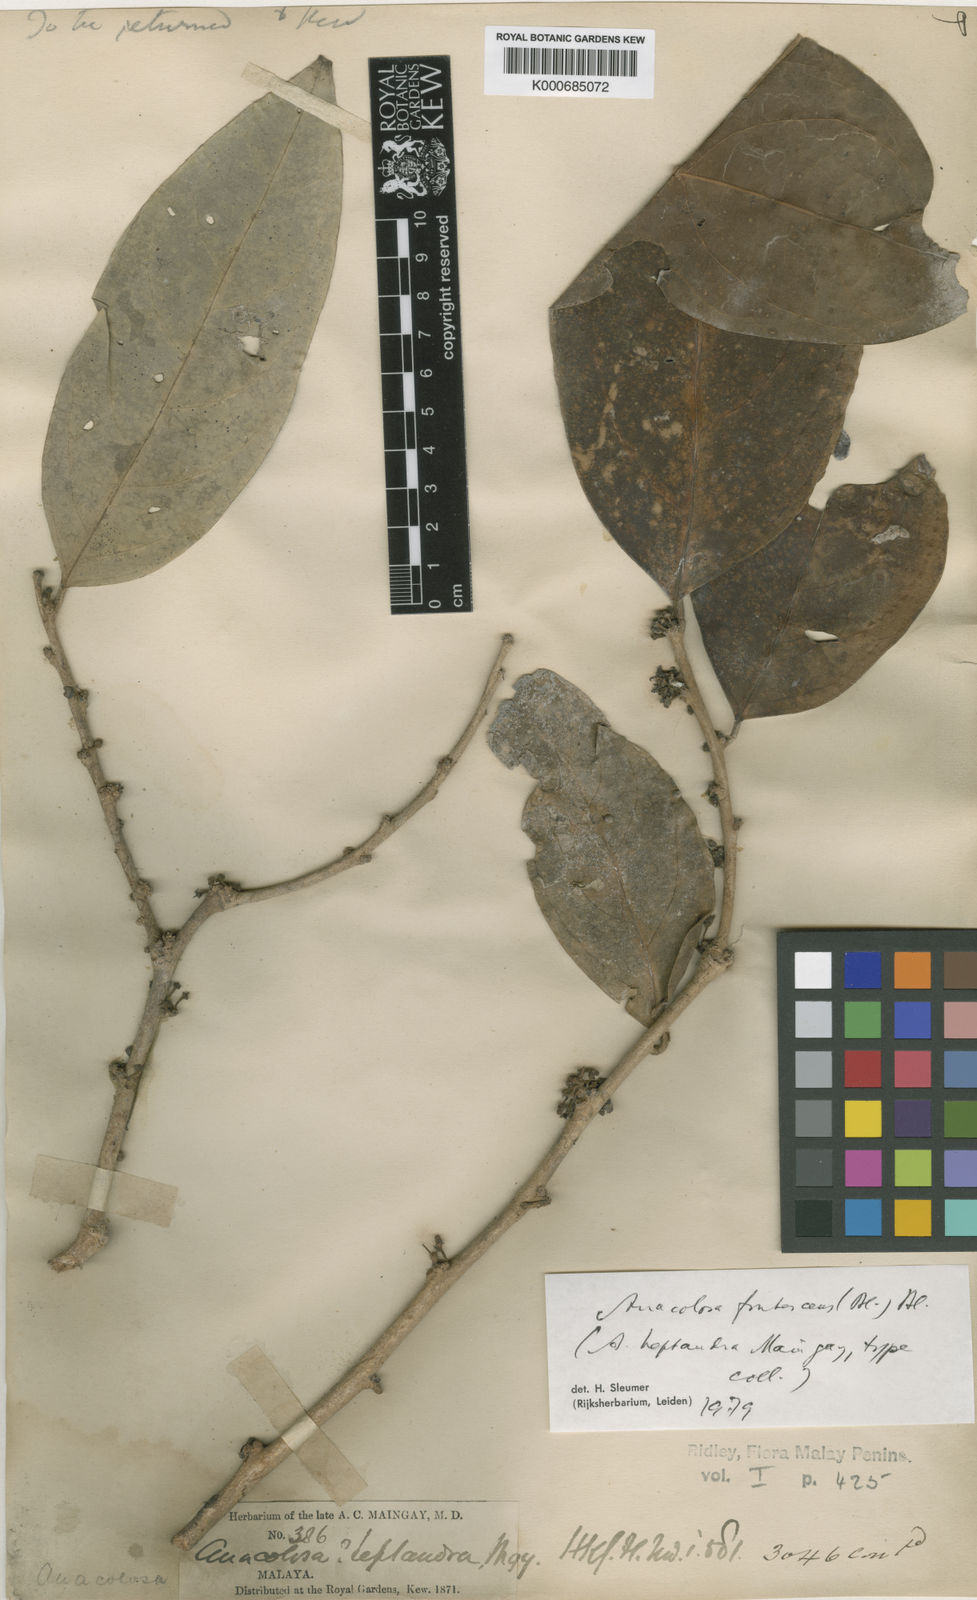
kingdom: Plantae
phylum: Tracheophyta
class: Magnoliopsida
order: Santalales
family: Aptandraceae
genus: Anacolosa
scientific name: Anacolosa frutescens
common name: Galo nut
